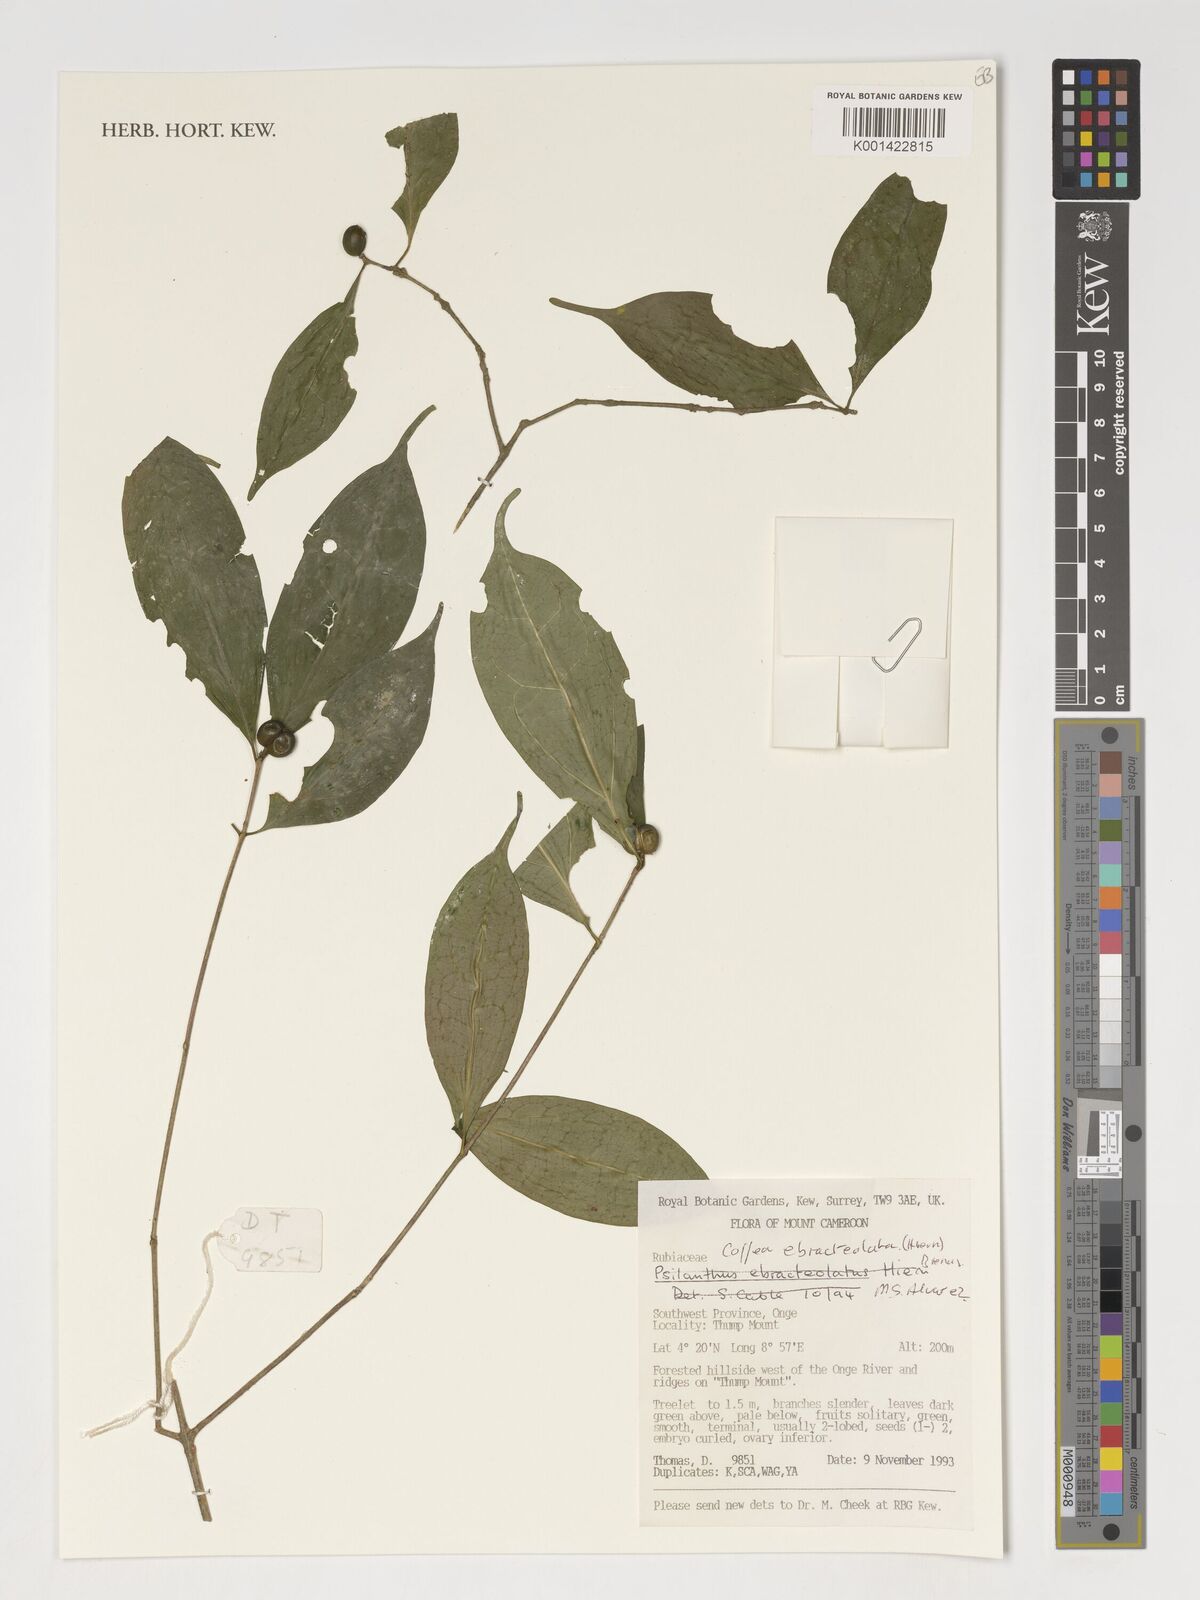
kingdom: Plantae
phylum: Tracheophyta
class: Magnoliopsida
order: Gentianales
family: Rubiaceae
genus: Coffea
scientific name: Coffea ebracteolata
